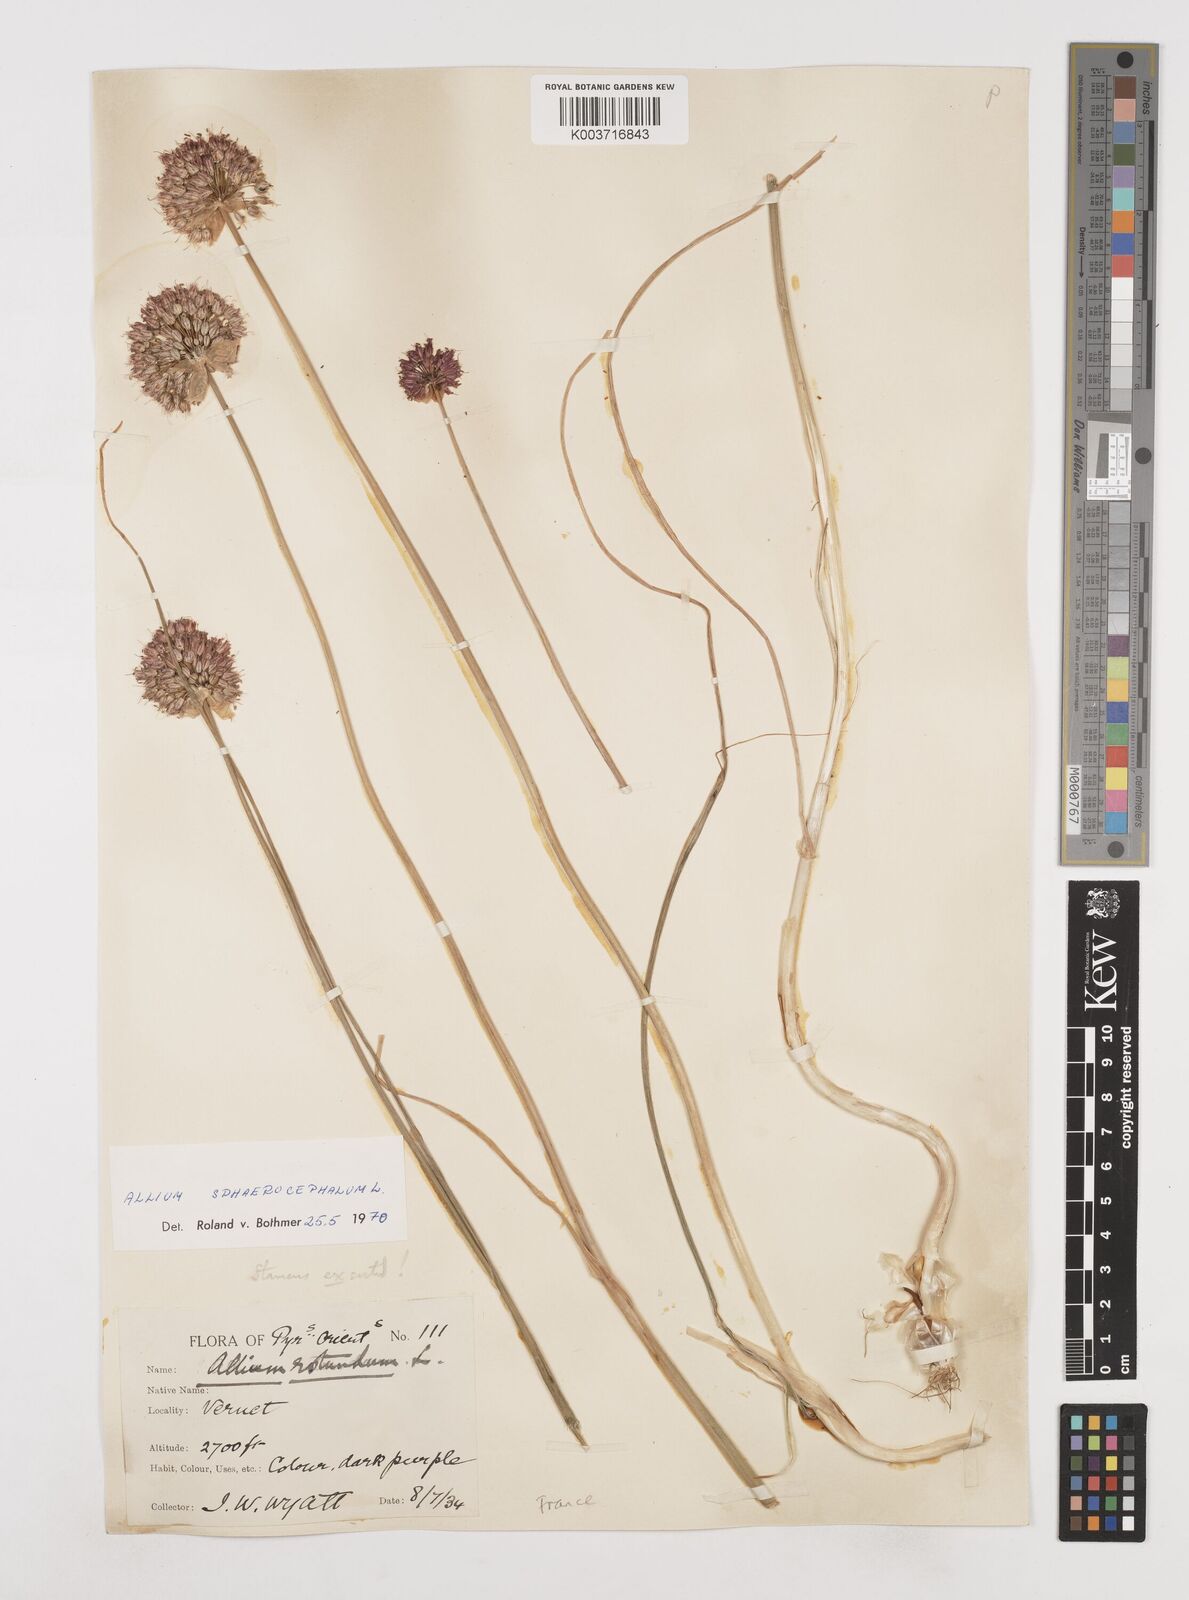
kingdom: Plantae
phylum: Tracheophyta
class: Liliopsida
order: Asparagales
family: Amaryllidaceae
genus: Allium
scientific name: Allium sphaerocephalon
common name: Round-headed leek
